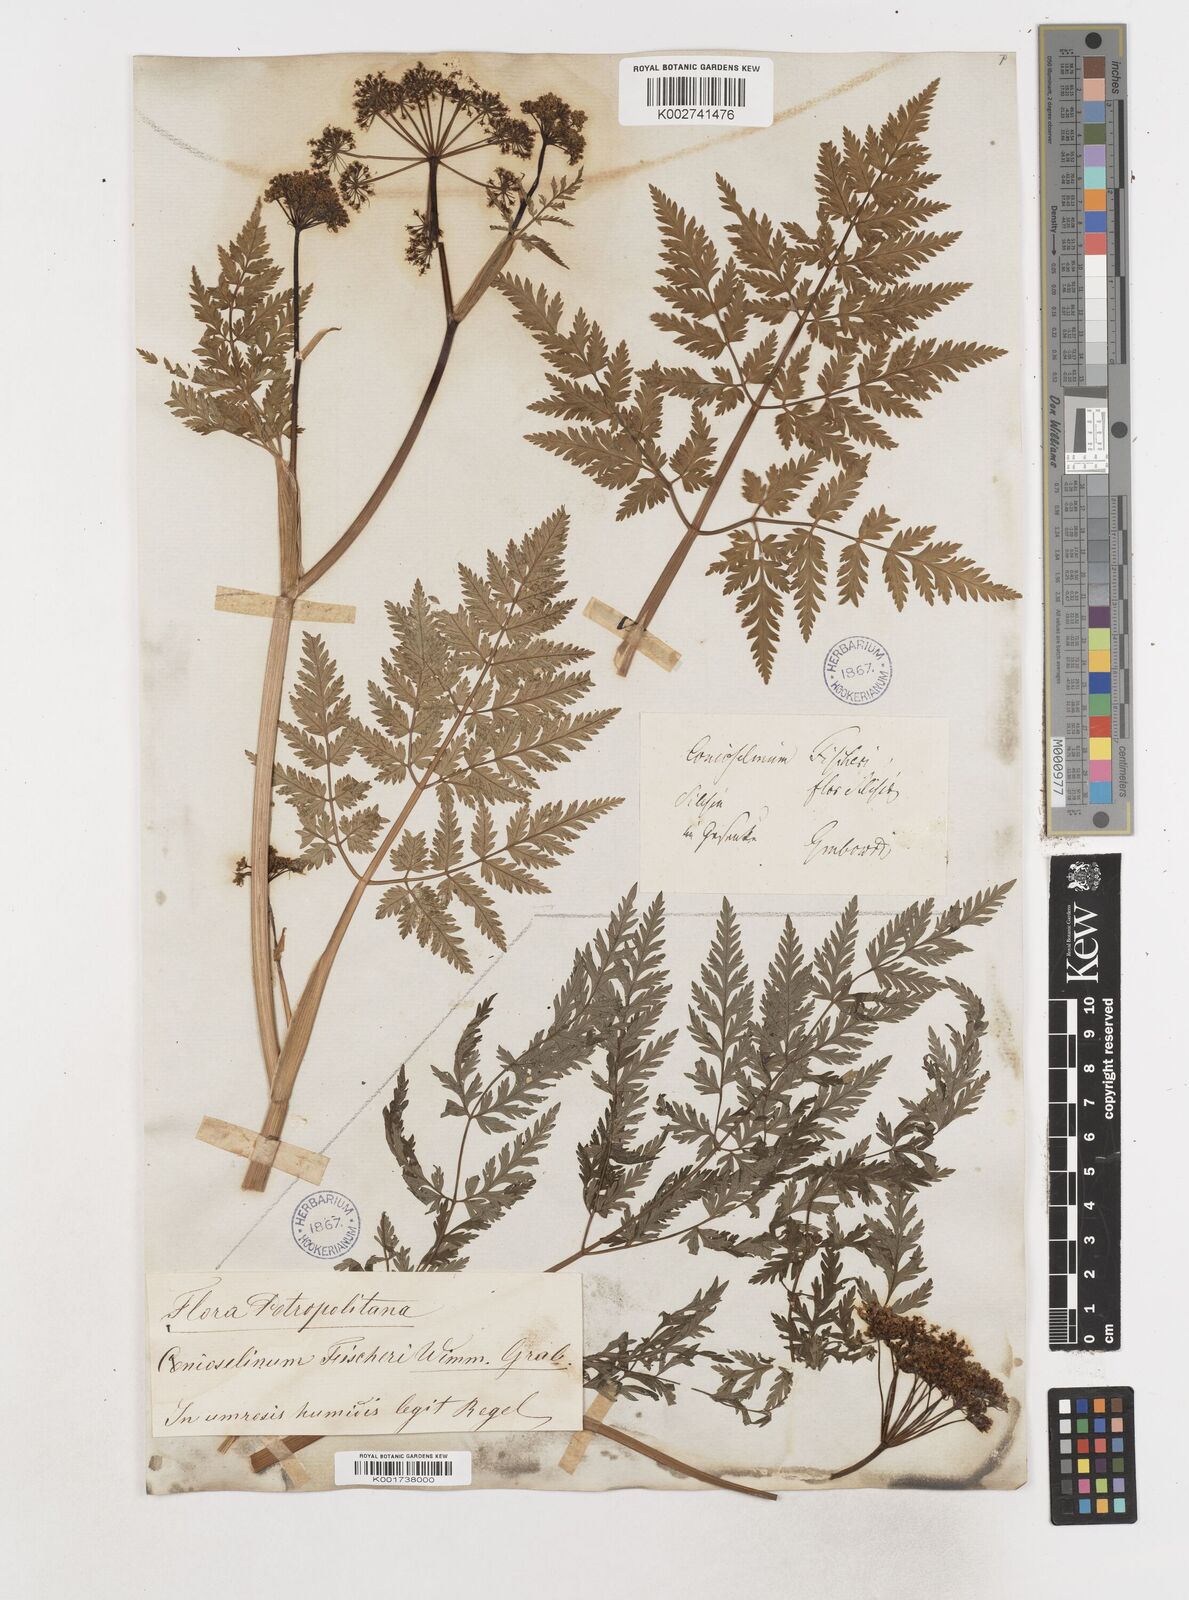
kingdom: Plantae
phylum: Tracheophyta
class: Magnoliopsida
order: Apiales
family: Apiaceae
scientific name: Apiaceae
